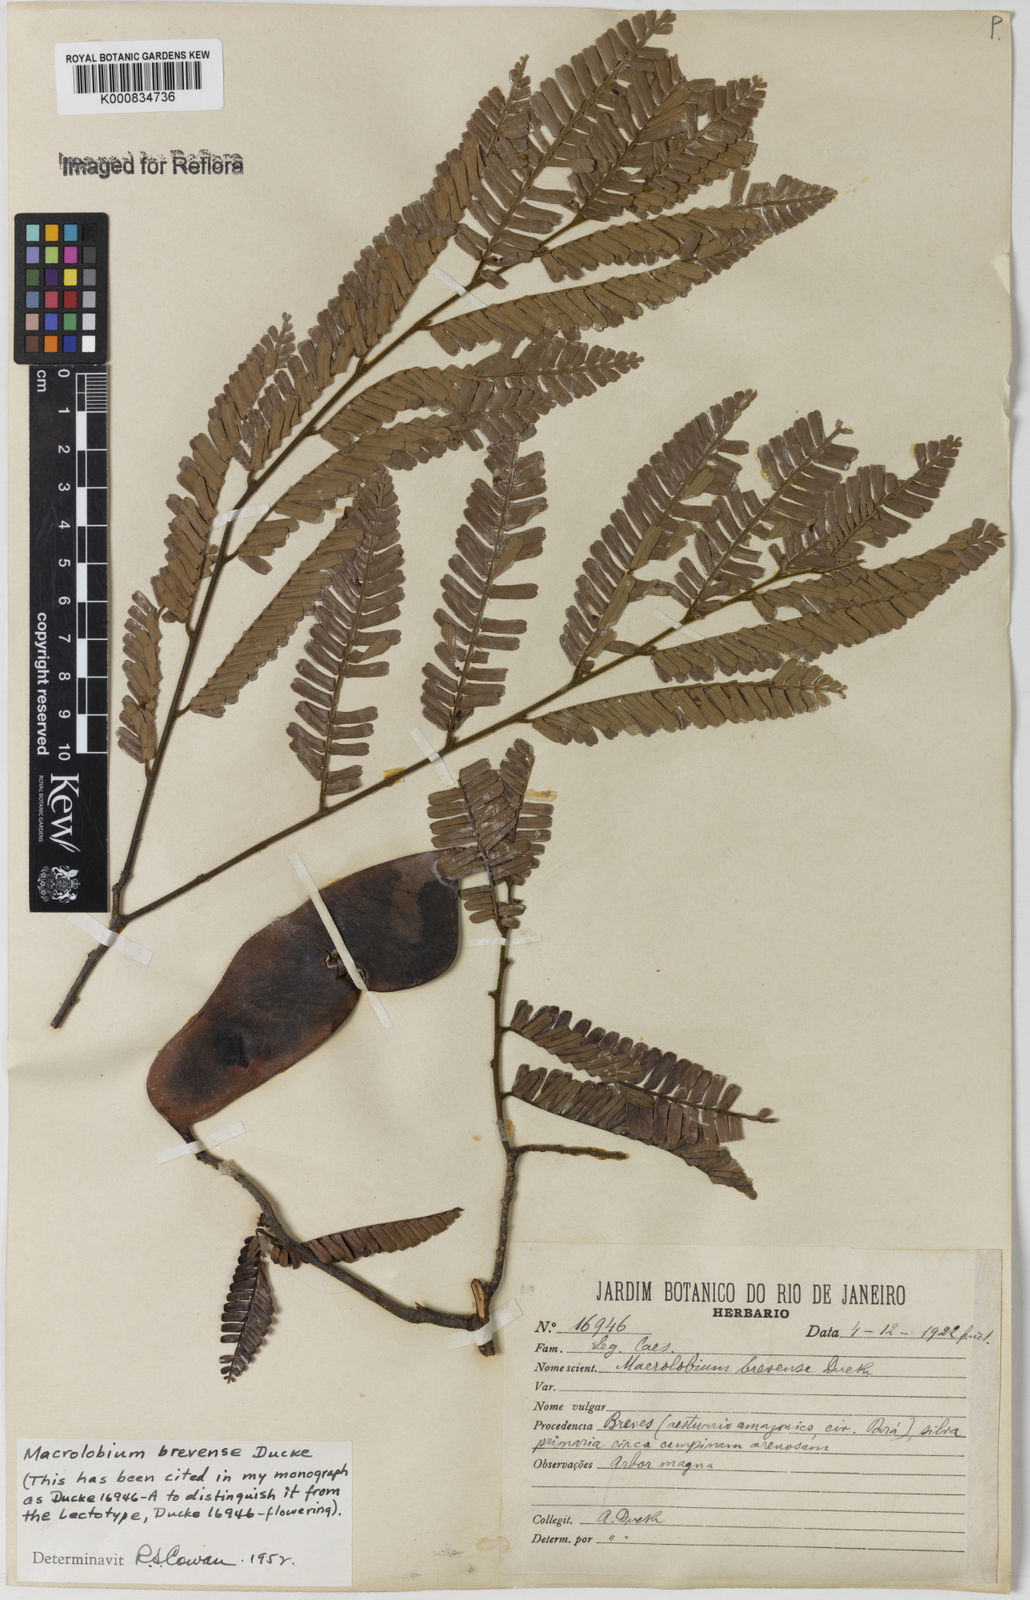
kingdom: Plantae
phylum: Tracheophyta
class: Magnoliopsida
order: Fabales
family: Fabaceae
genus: Macrolobium
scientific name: Macrolobium brevense
